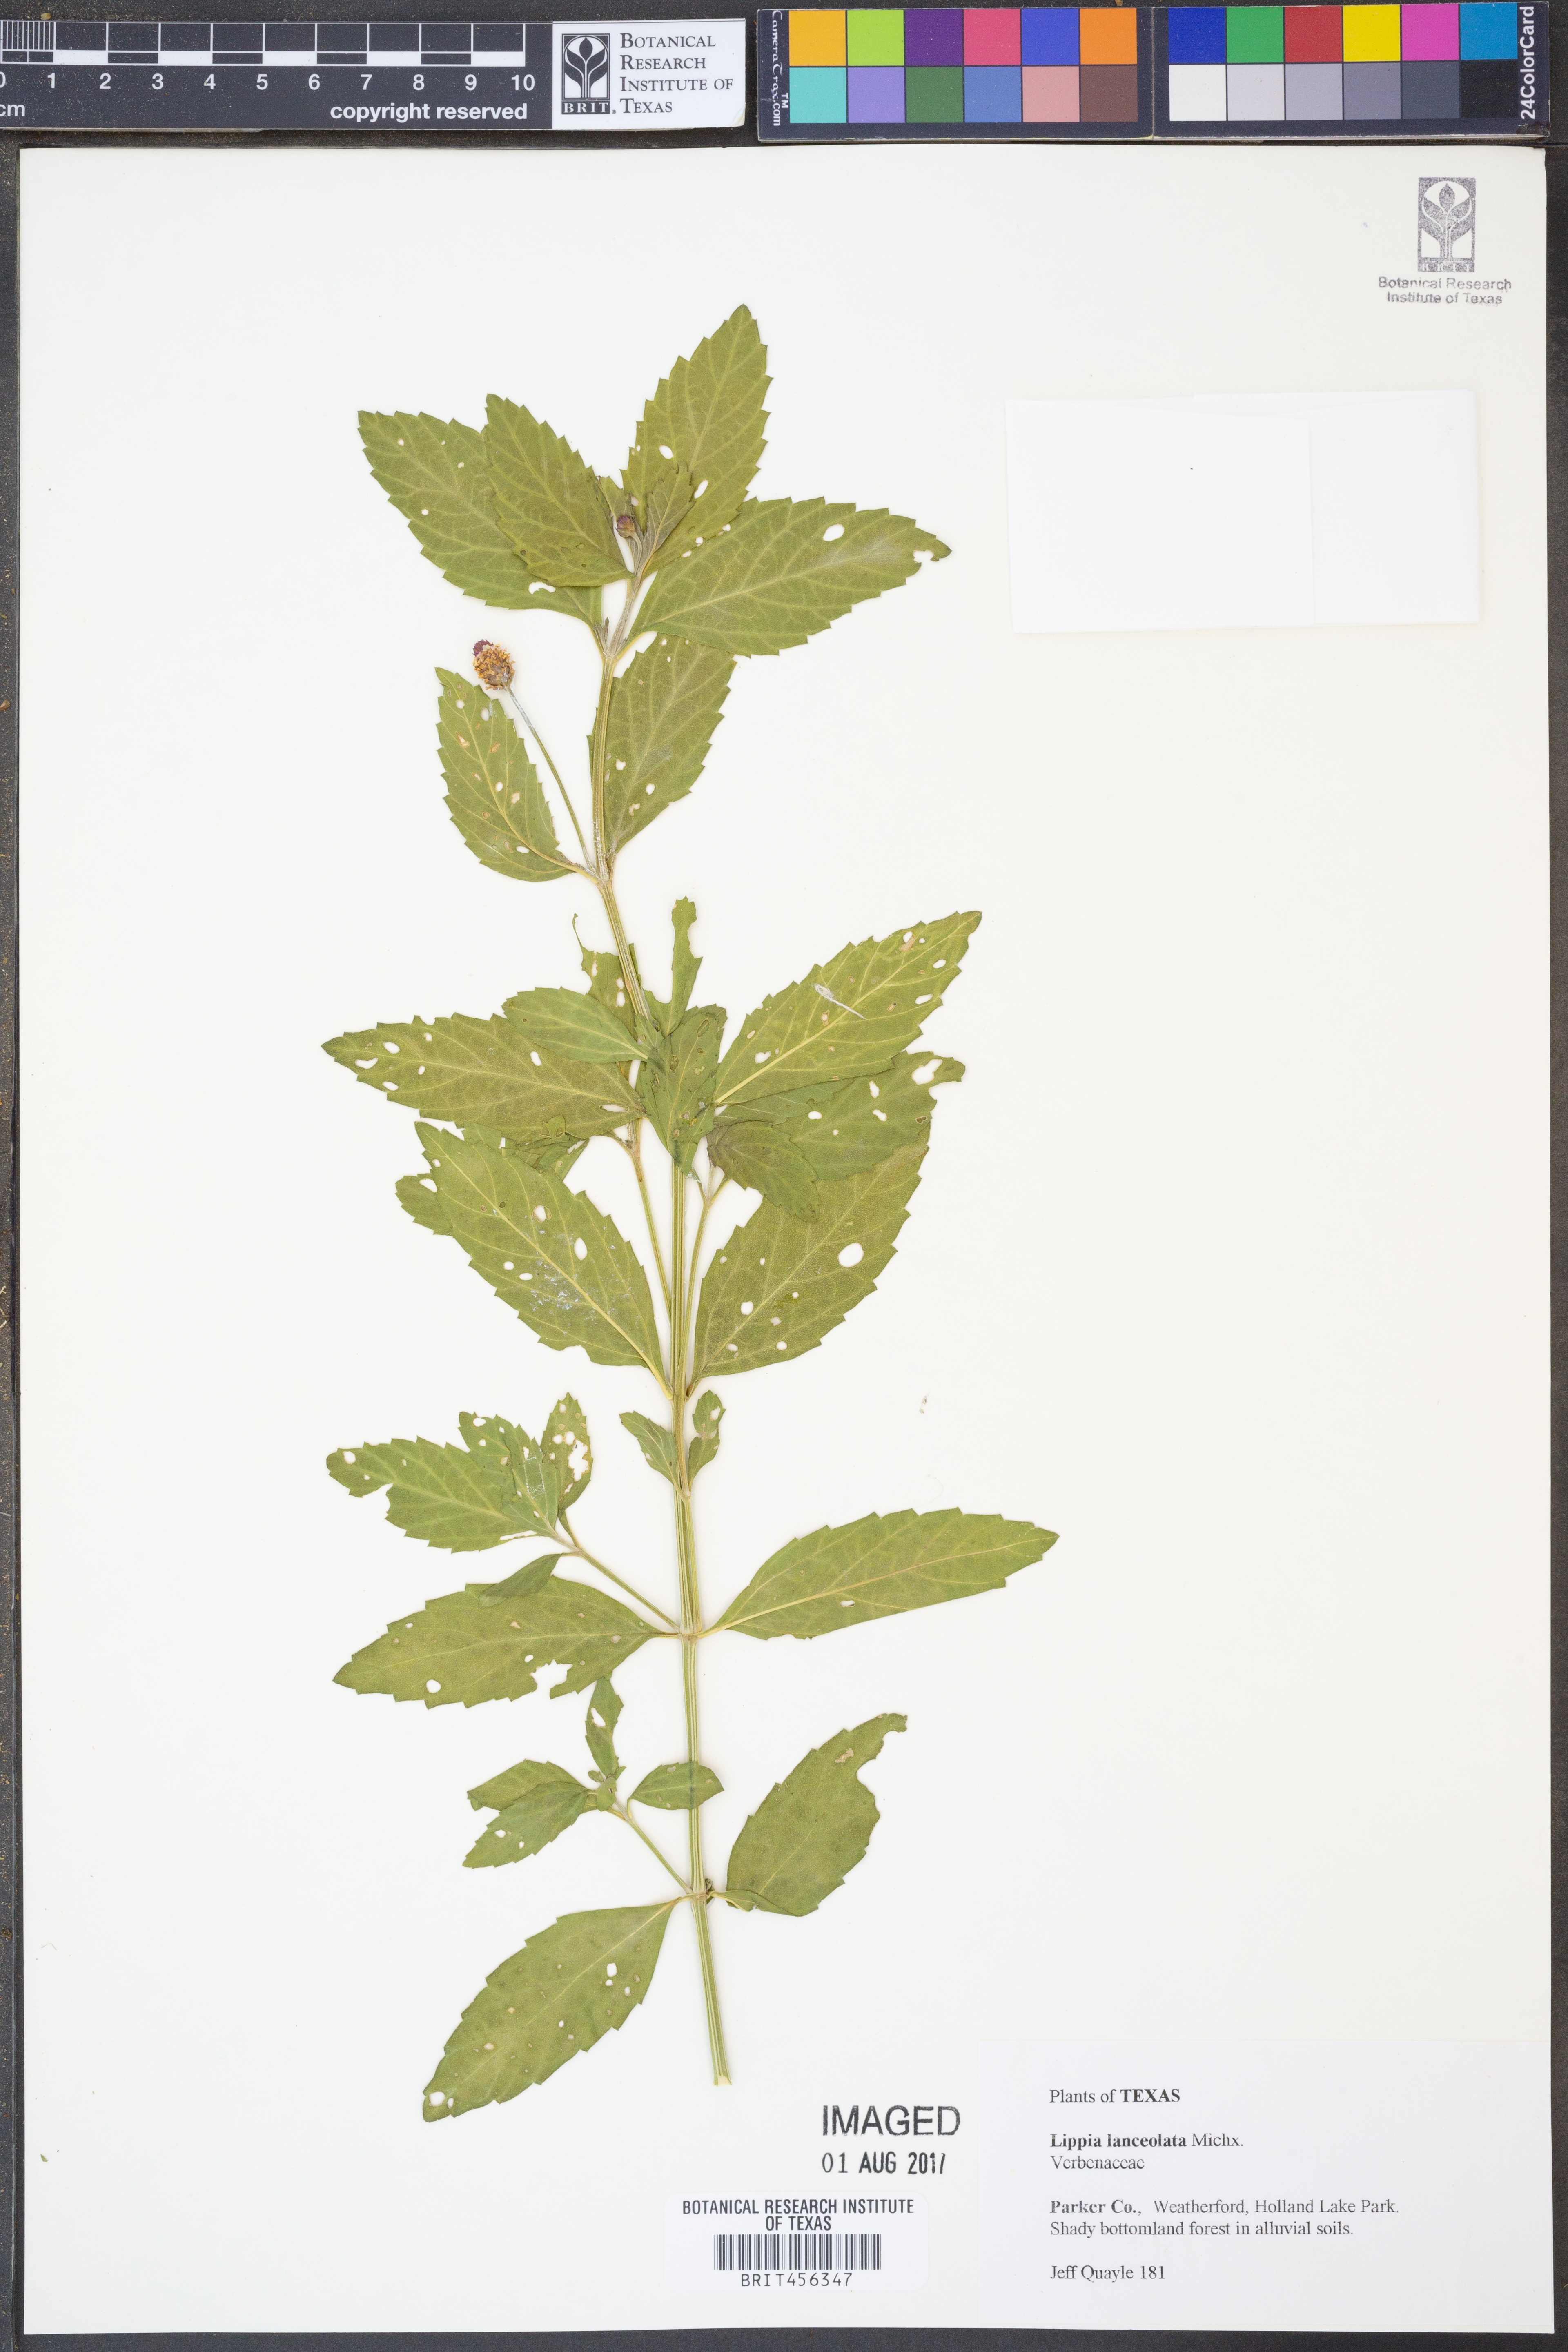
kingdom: Plantae
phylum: Tracheophyta
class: Magnoliopsida
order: Lamiales
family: Verbenaceae
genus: Phyla
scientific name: Phyla lanceolata
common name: Northern fogfruit
